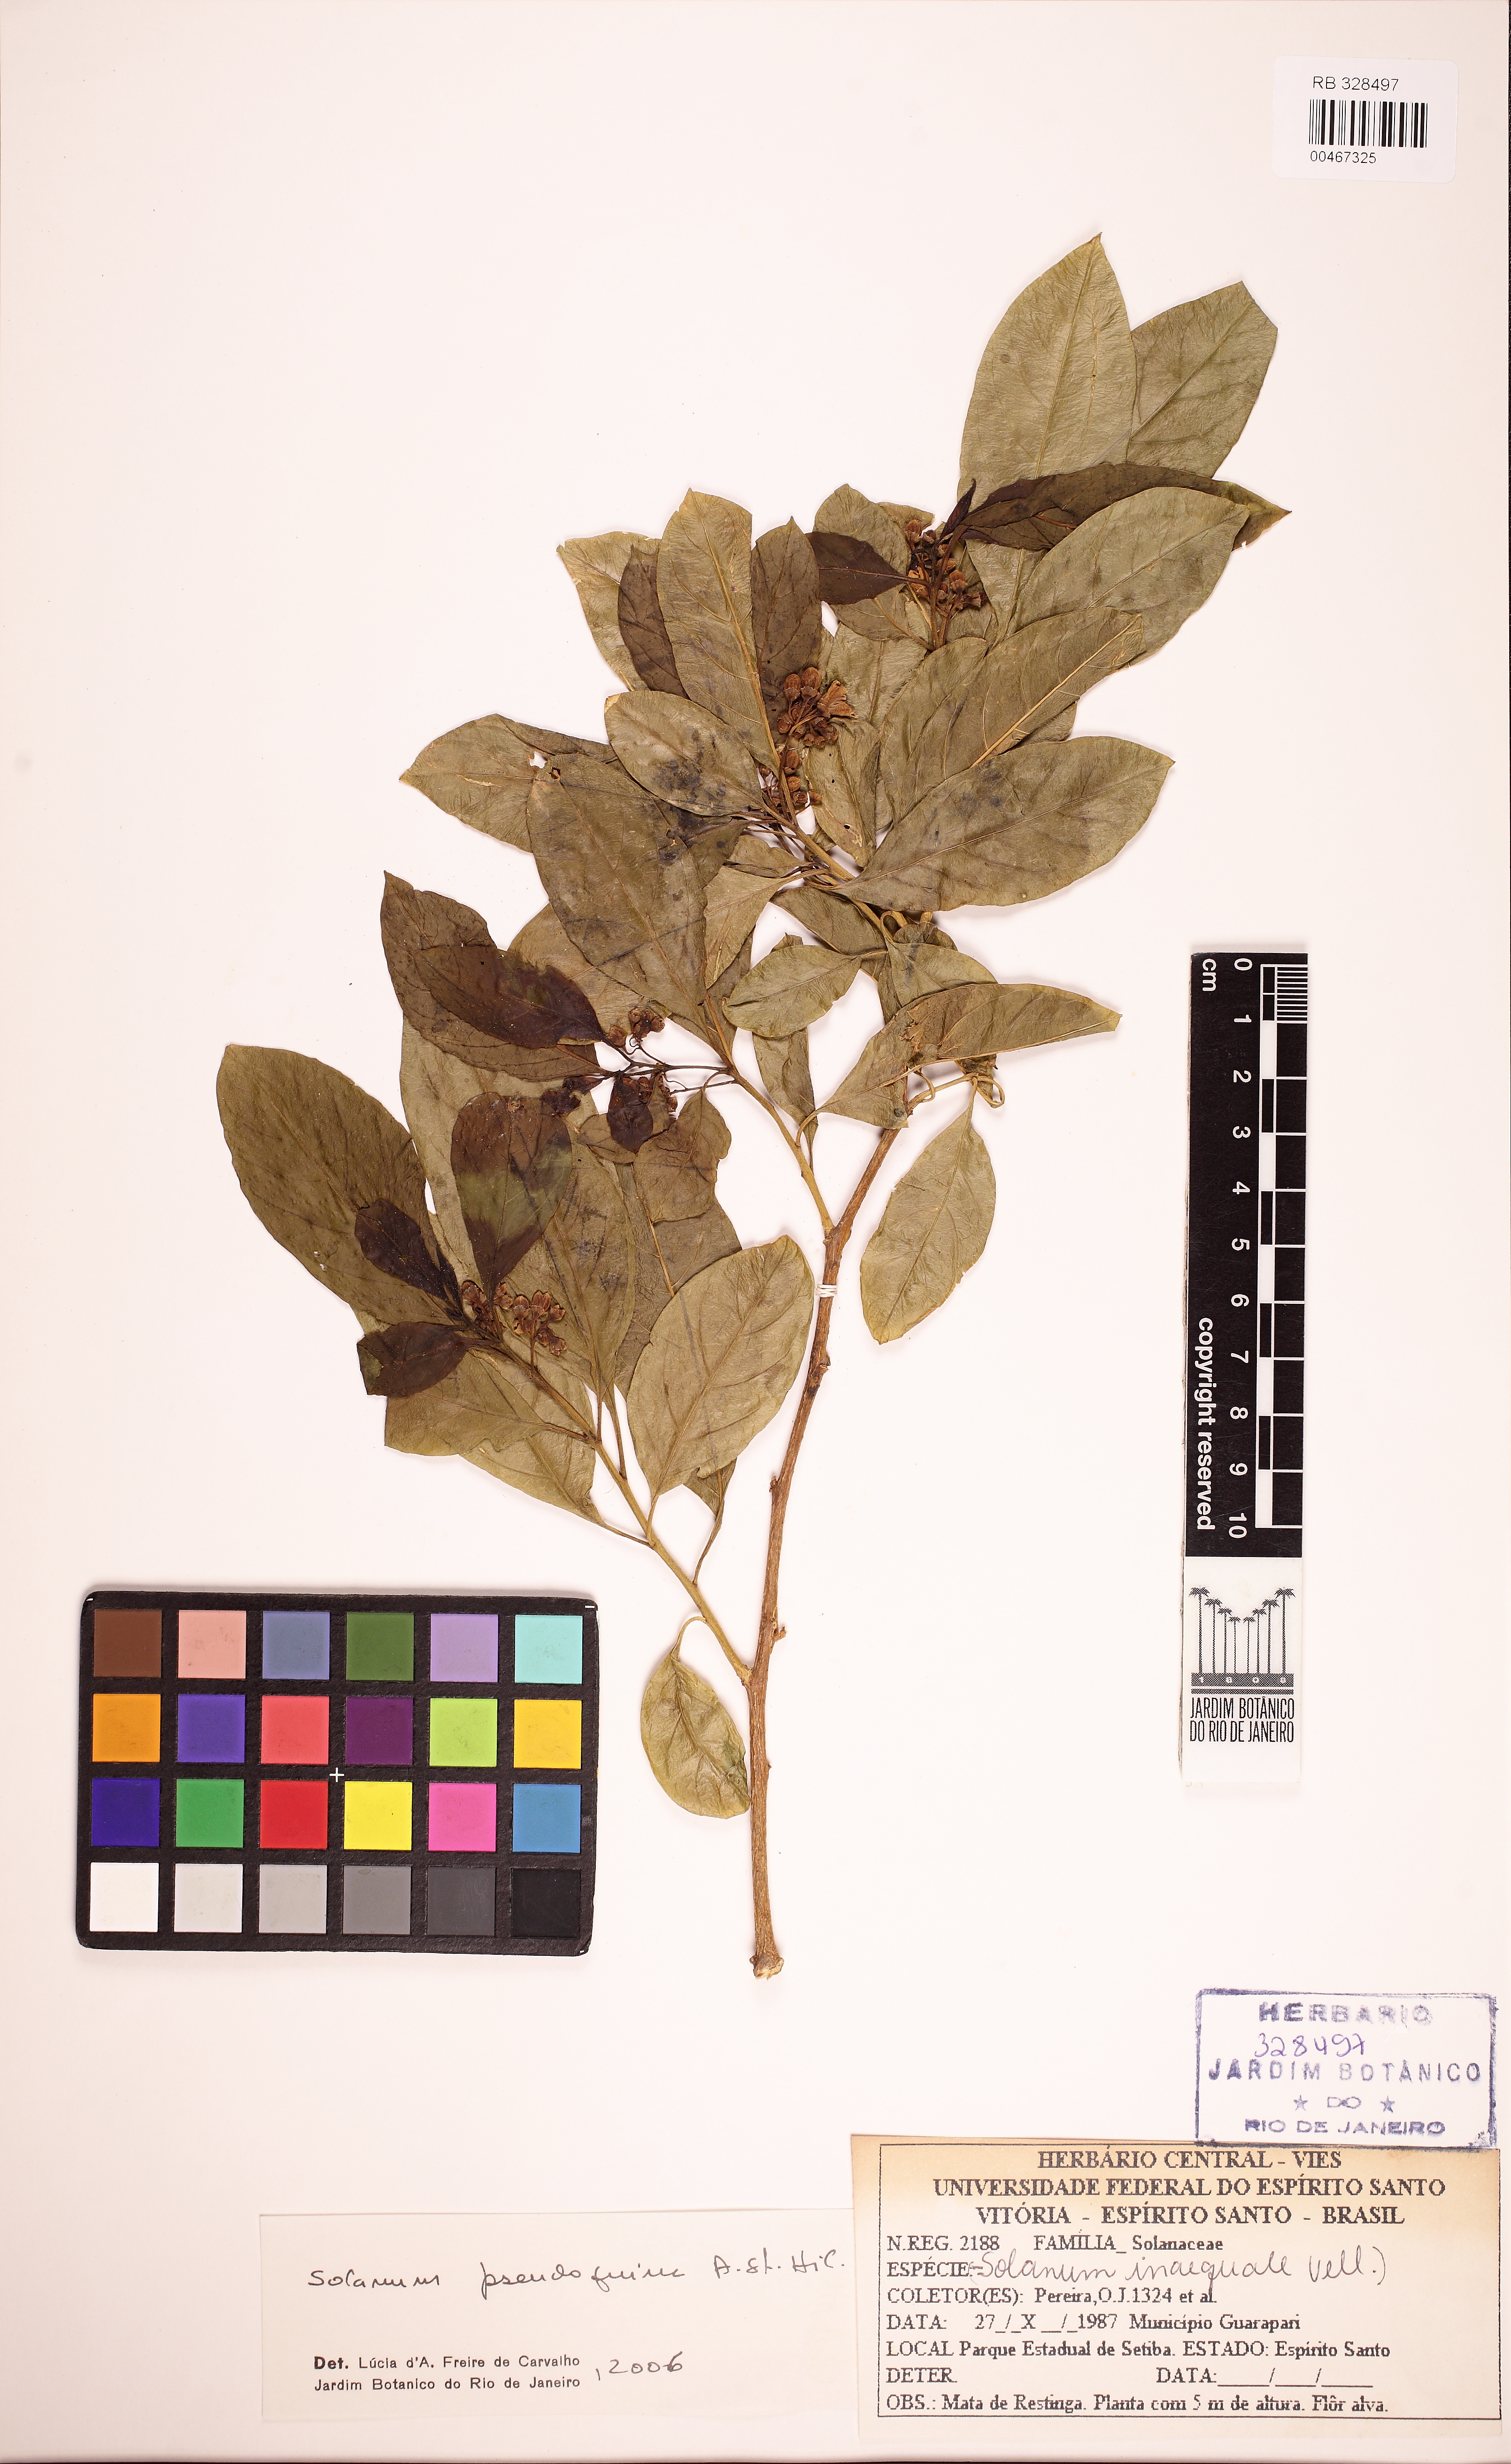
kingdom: Plantae
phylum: Tracheophyta
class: Magnoliopsida
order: Solanales
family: Solanaceae
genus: Solanum
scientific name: Solanum pseudoquina
